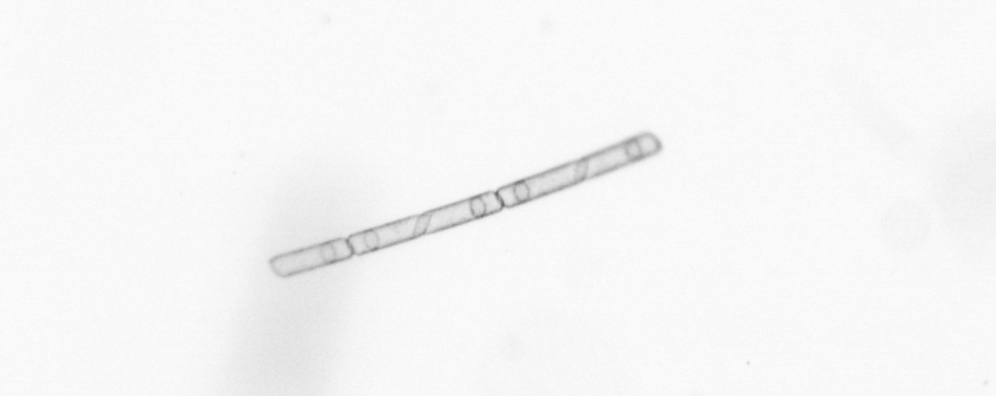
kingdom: Chromista
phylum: Ochrophyta
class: Bacillariophyceae
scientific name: Bacillariophyceae
